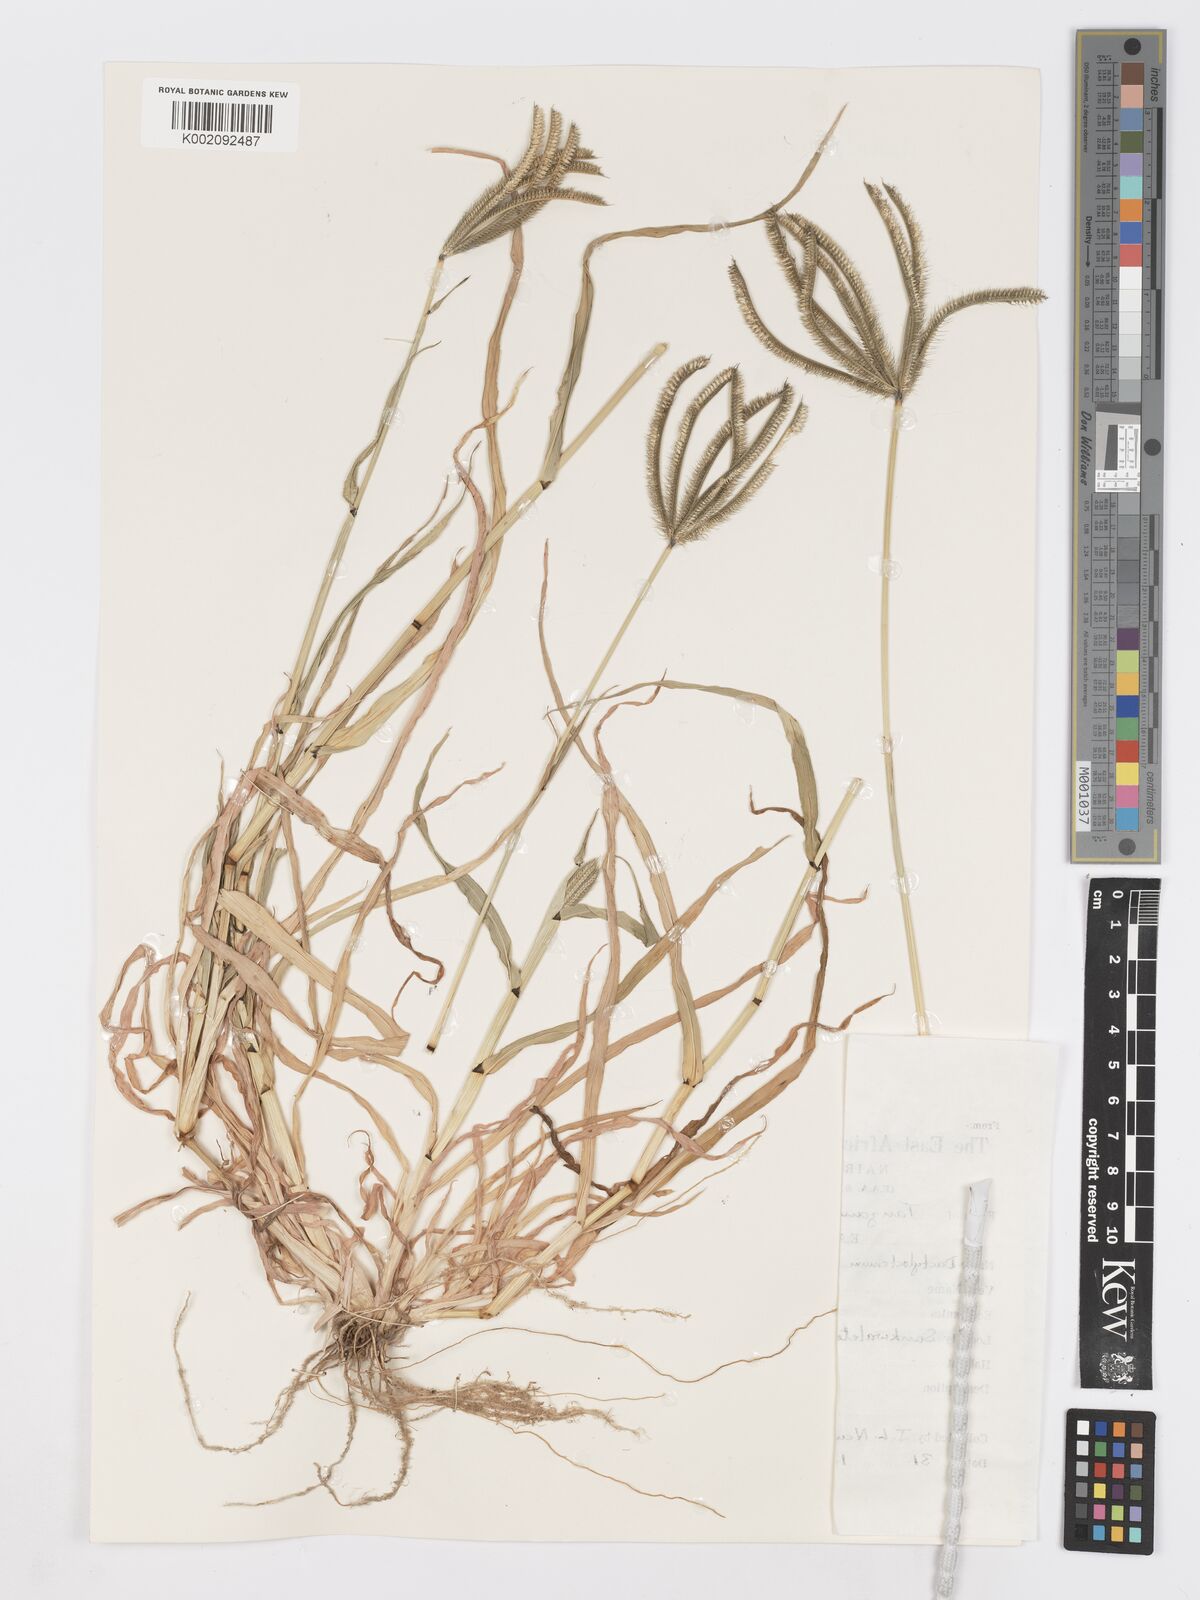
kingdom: Plantae
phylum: Tracheophyta
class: Liliopsida
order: Poales
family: Poaceae
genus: Dactyloctenium
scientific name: Dactyloctenium giganteum
